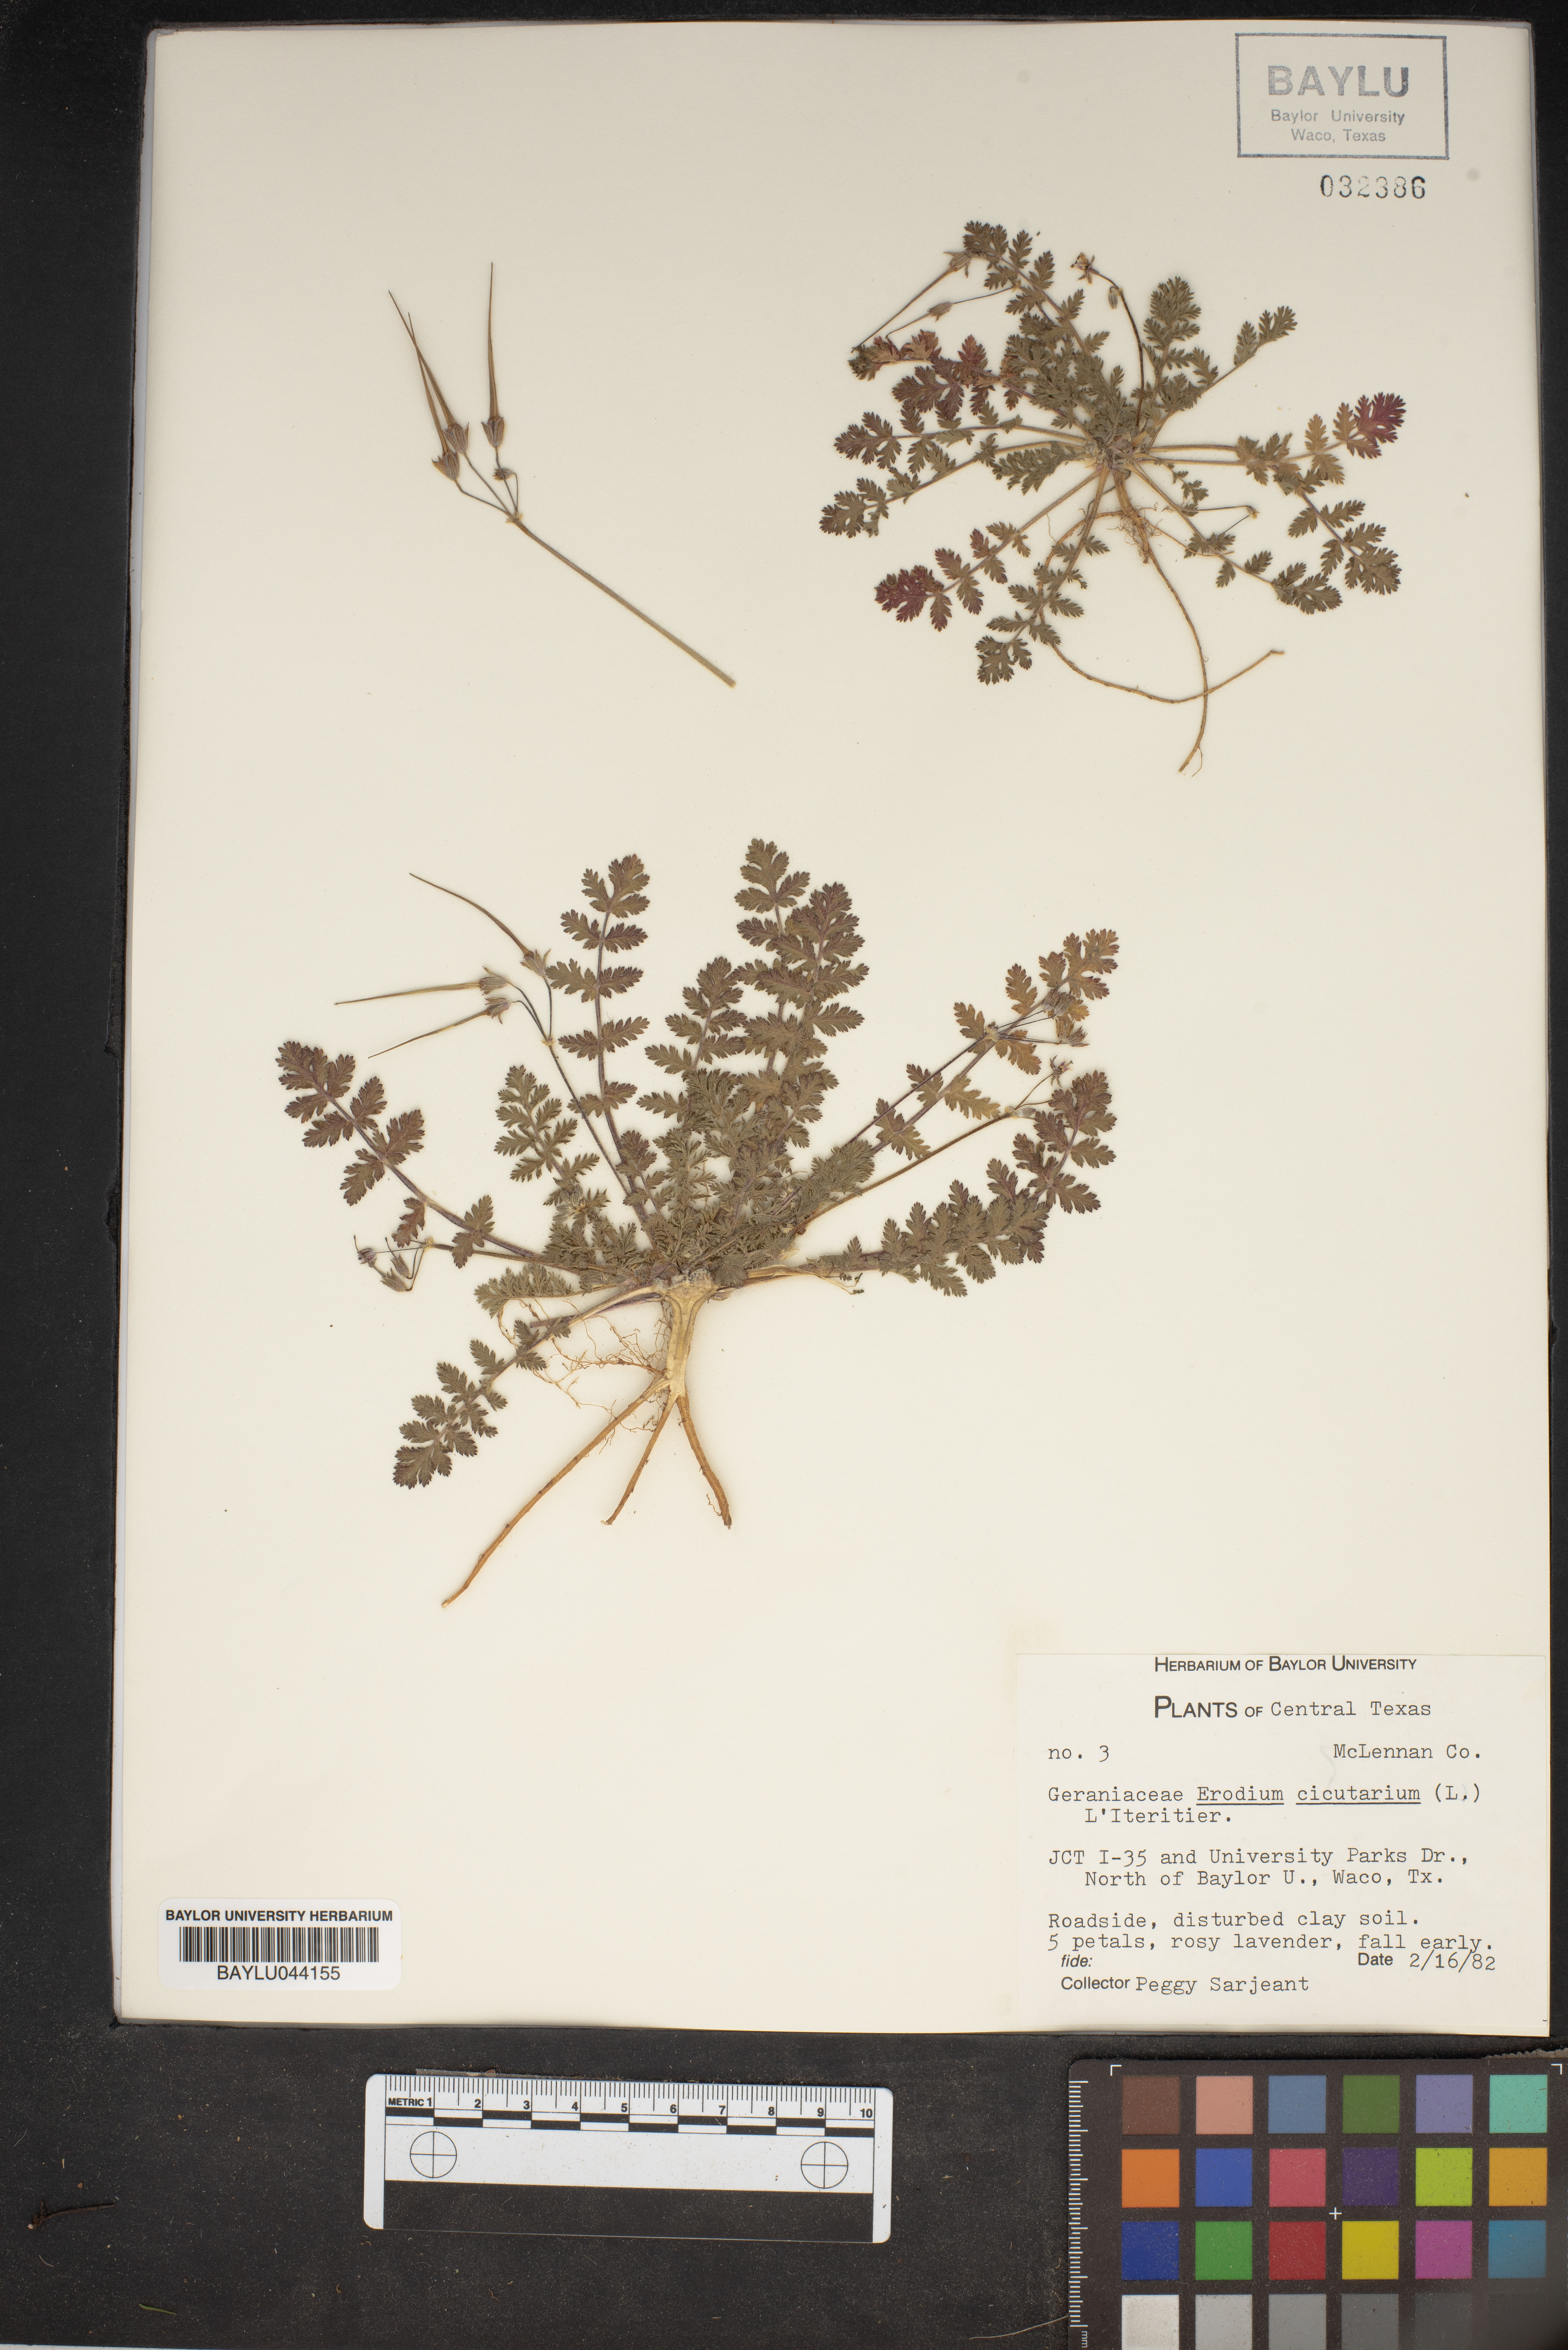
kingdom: Plantae
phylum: Tracheophyta
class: Magnoliopsida
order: Geraniales
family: Geraniaceae
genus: Erodium
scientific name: Erodium cicutarium
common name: Common stork's-bill
